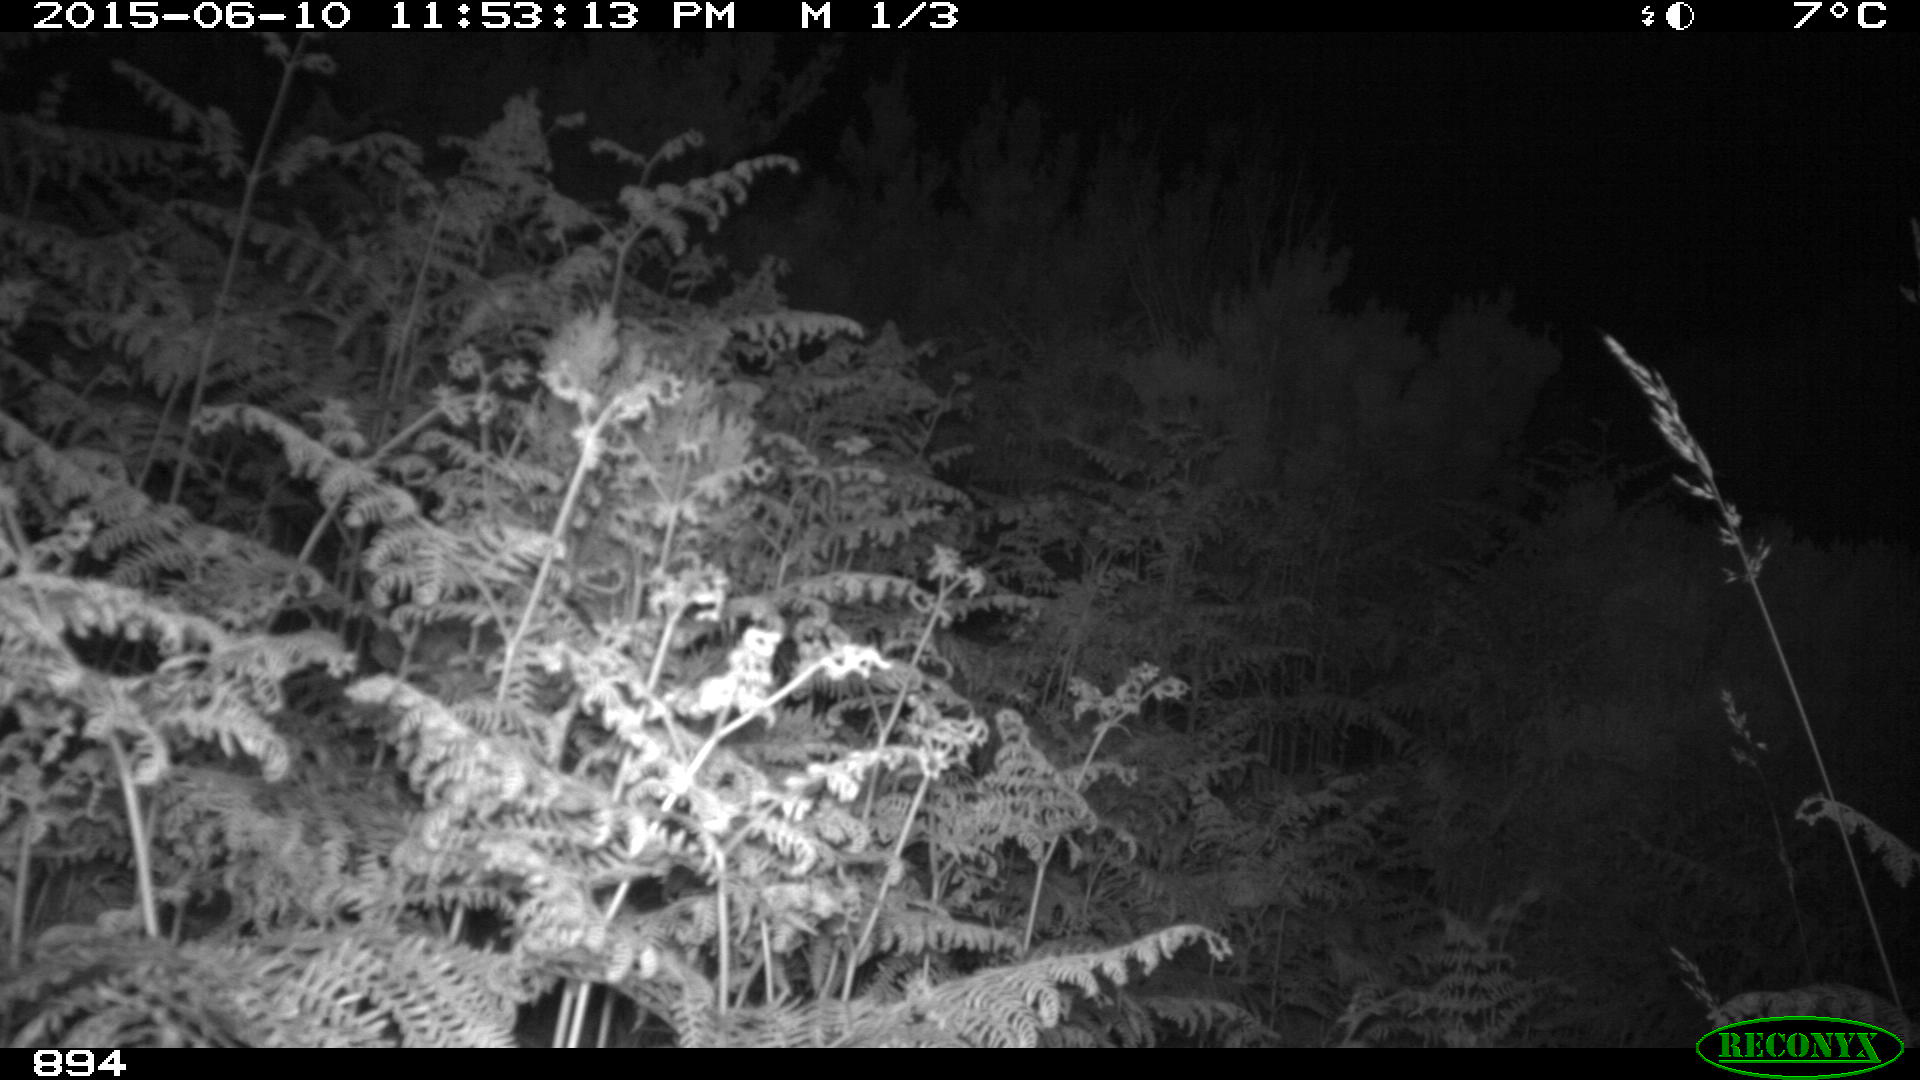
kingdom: Animalia
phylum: Chordata
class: Mammalia
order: Artiodactyla
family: Cervidae
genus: Capreolus
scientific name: Capreolus capreolus
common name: Western roe deer
